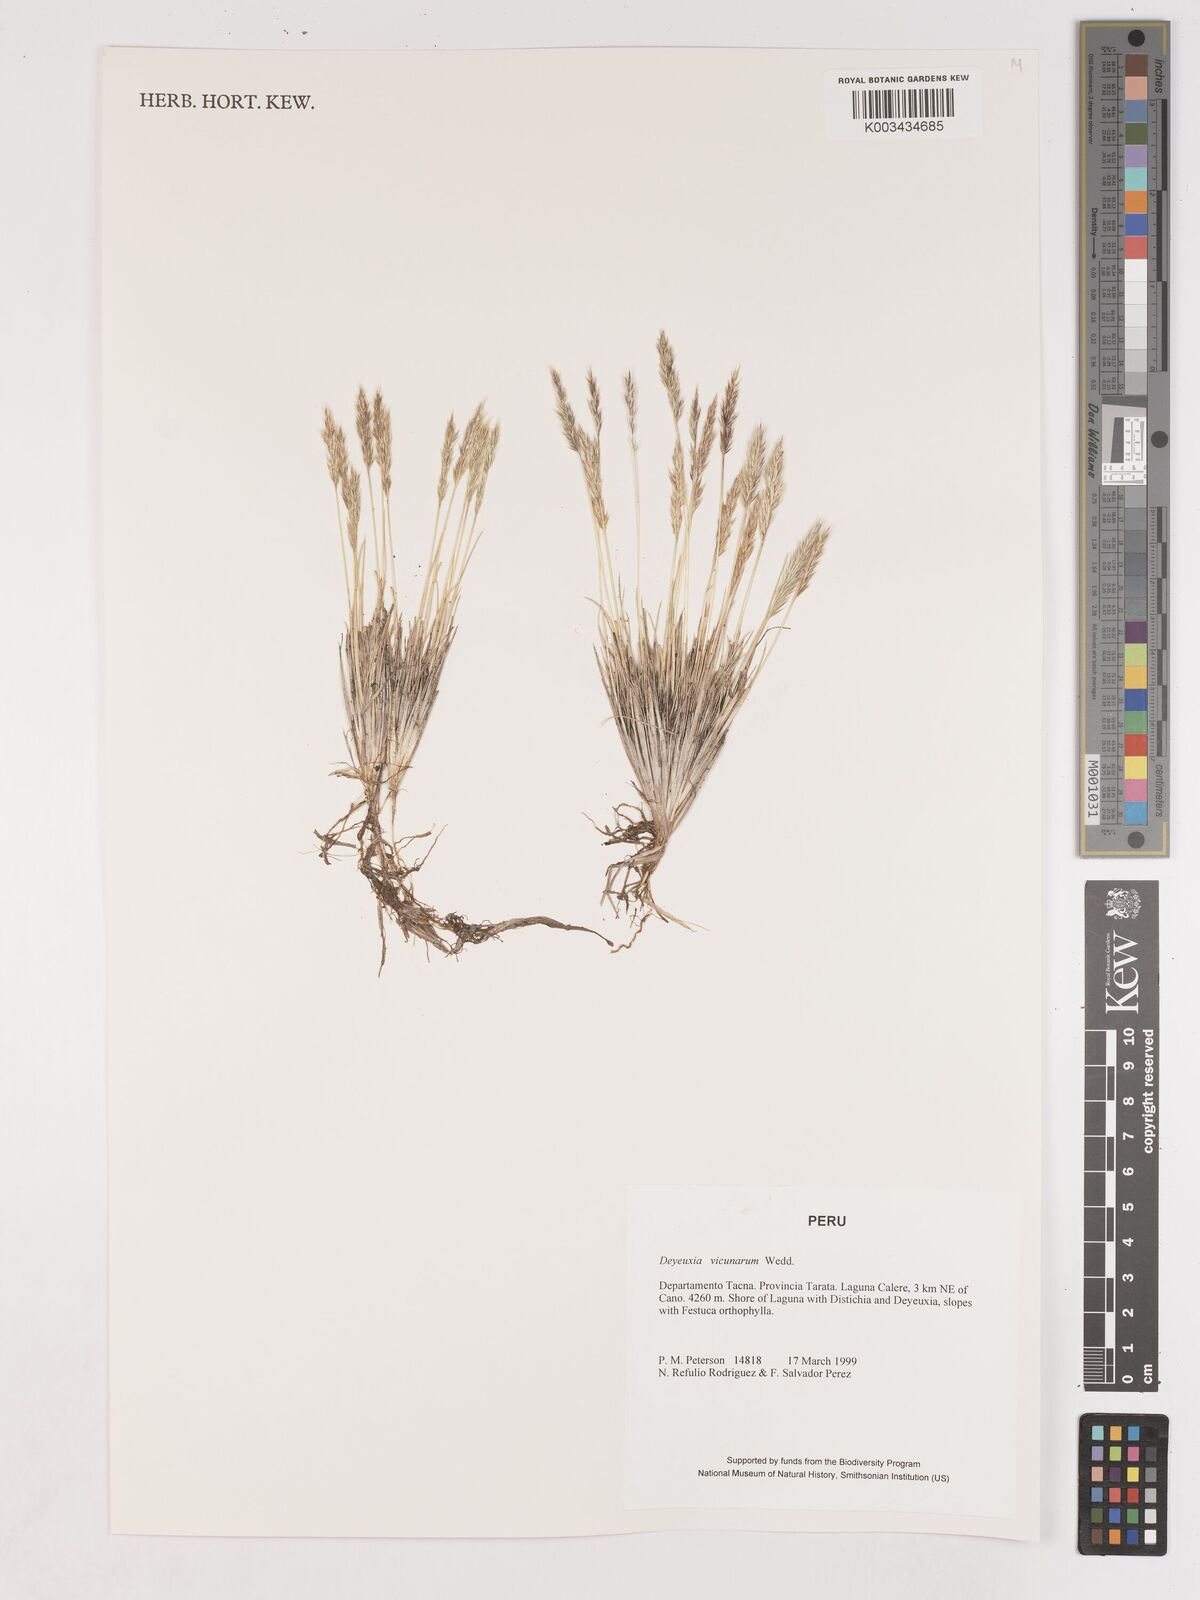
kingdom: Plantae
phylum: Tracheophyta
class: Liliopsida
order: Poales
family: Poaceae
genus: Cinnagrostis
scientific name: Cinnagrostis vicunarum
